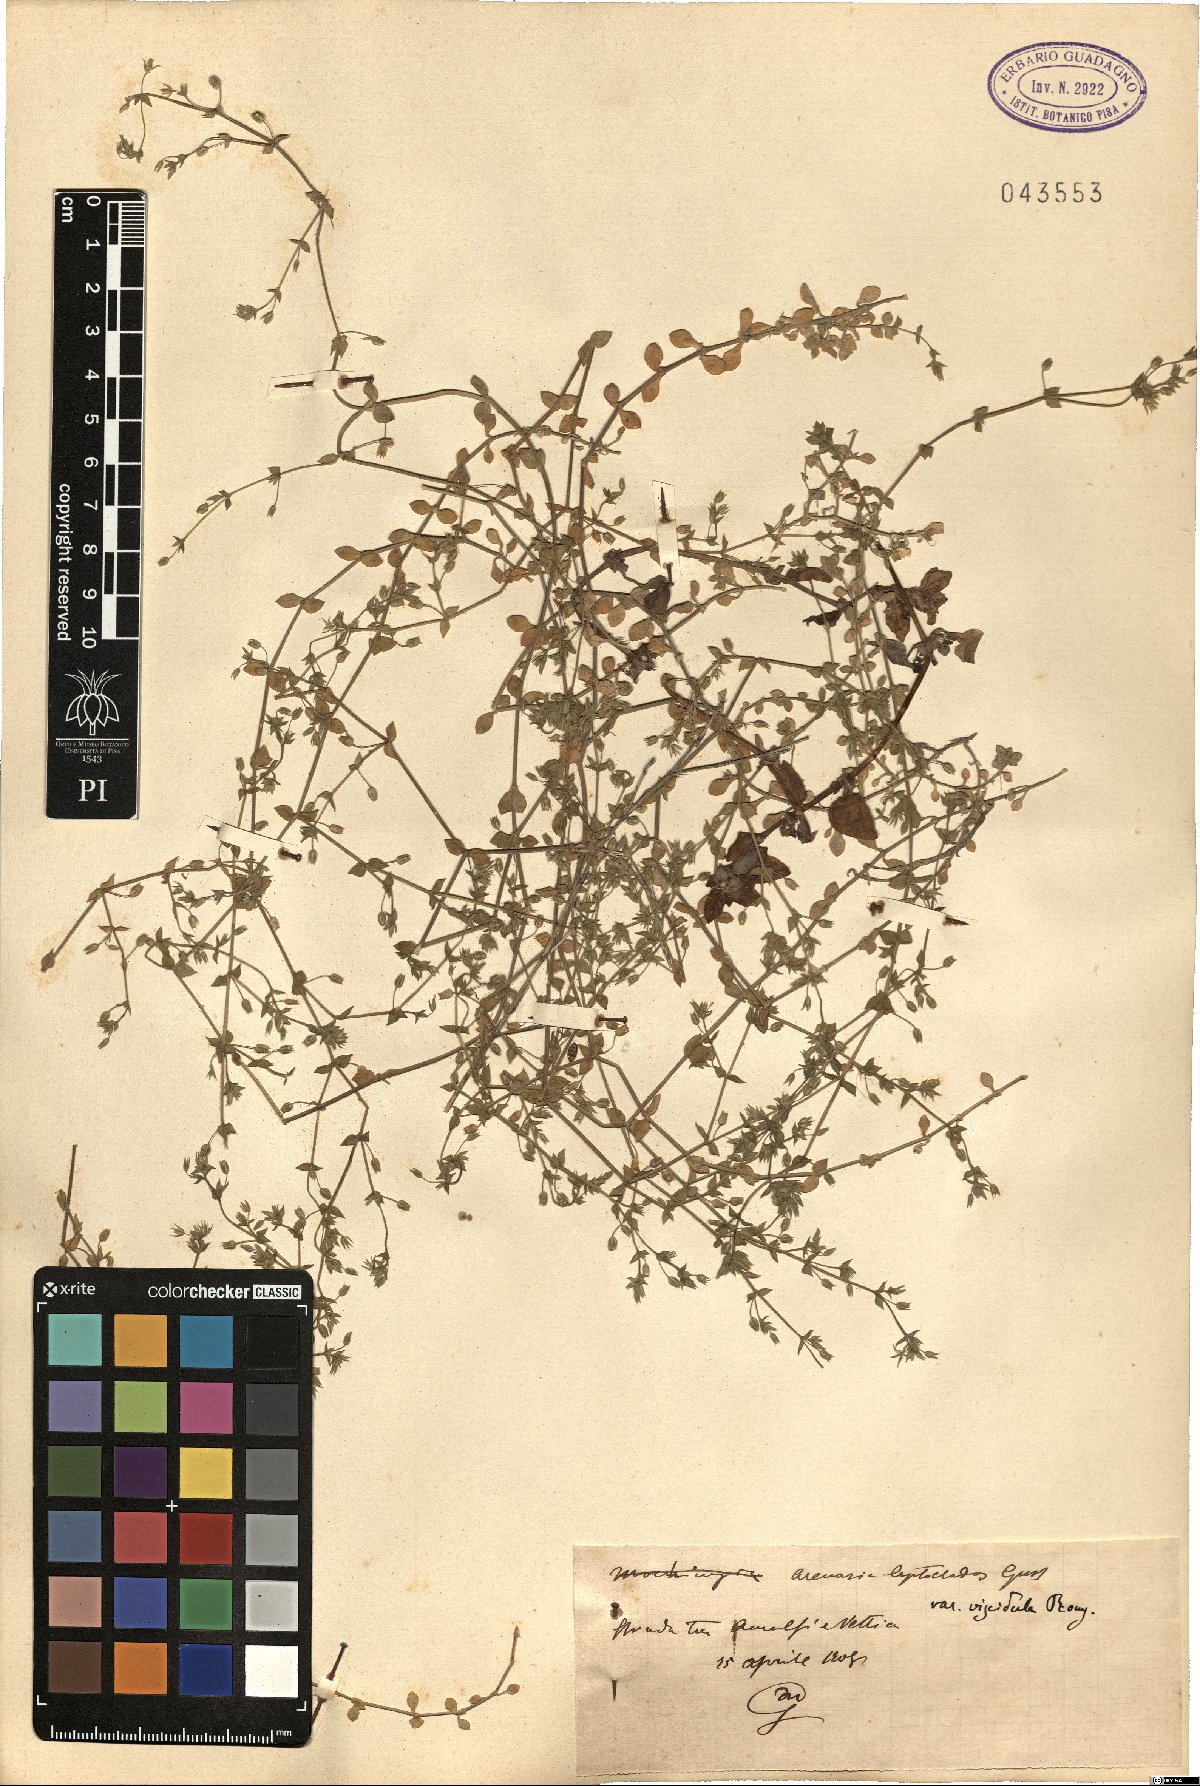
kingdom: Plantae
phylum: Tracheophyta
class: Magnoliopsida
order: Caryophyllales
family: Caryophyllaceae
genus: Arenaria
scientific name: Arenaria leptoclados
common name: Thyme-leaved sandwort
